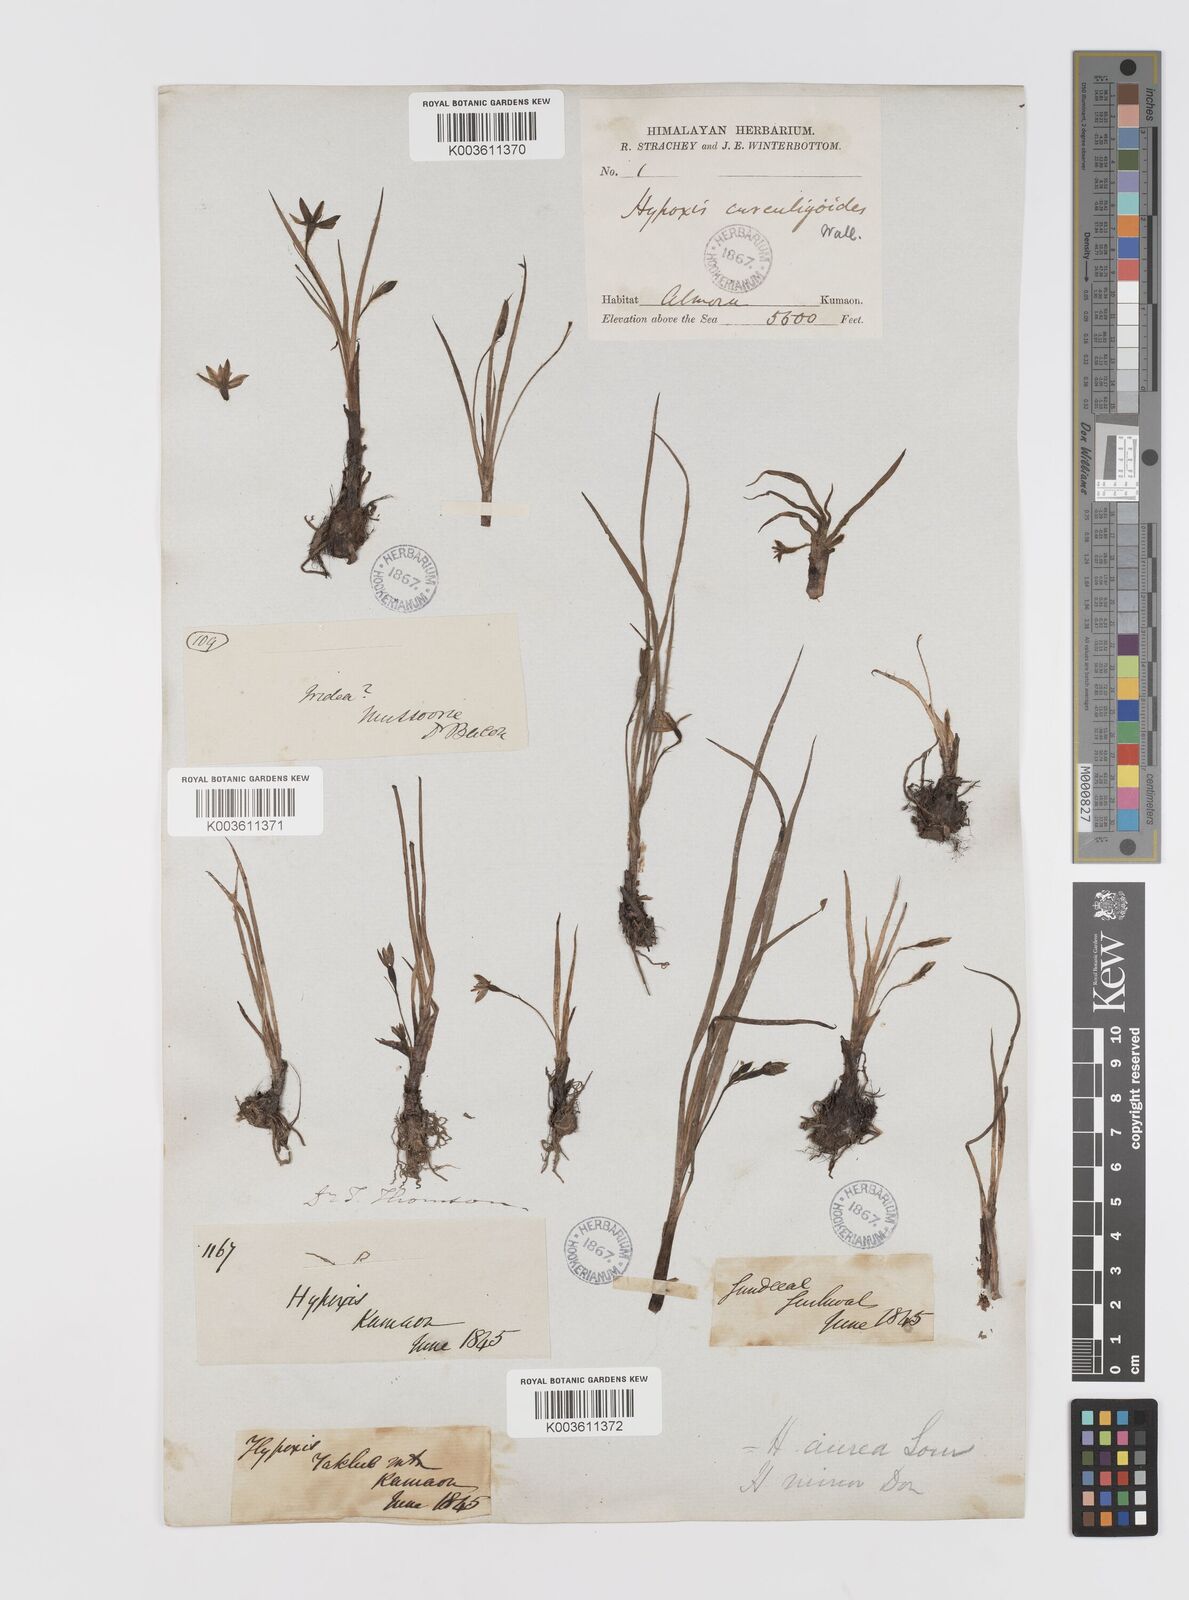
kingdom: Plantae
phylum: Tracheophyta
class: Liliopsida
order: Asparagales
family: Hypoxidaceae
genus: Hypoxis
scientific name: Hypoxis aurea
